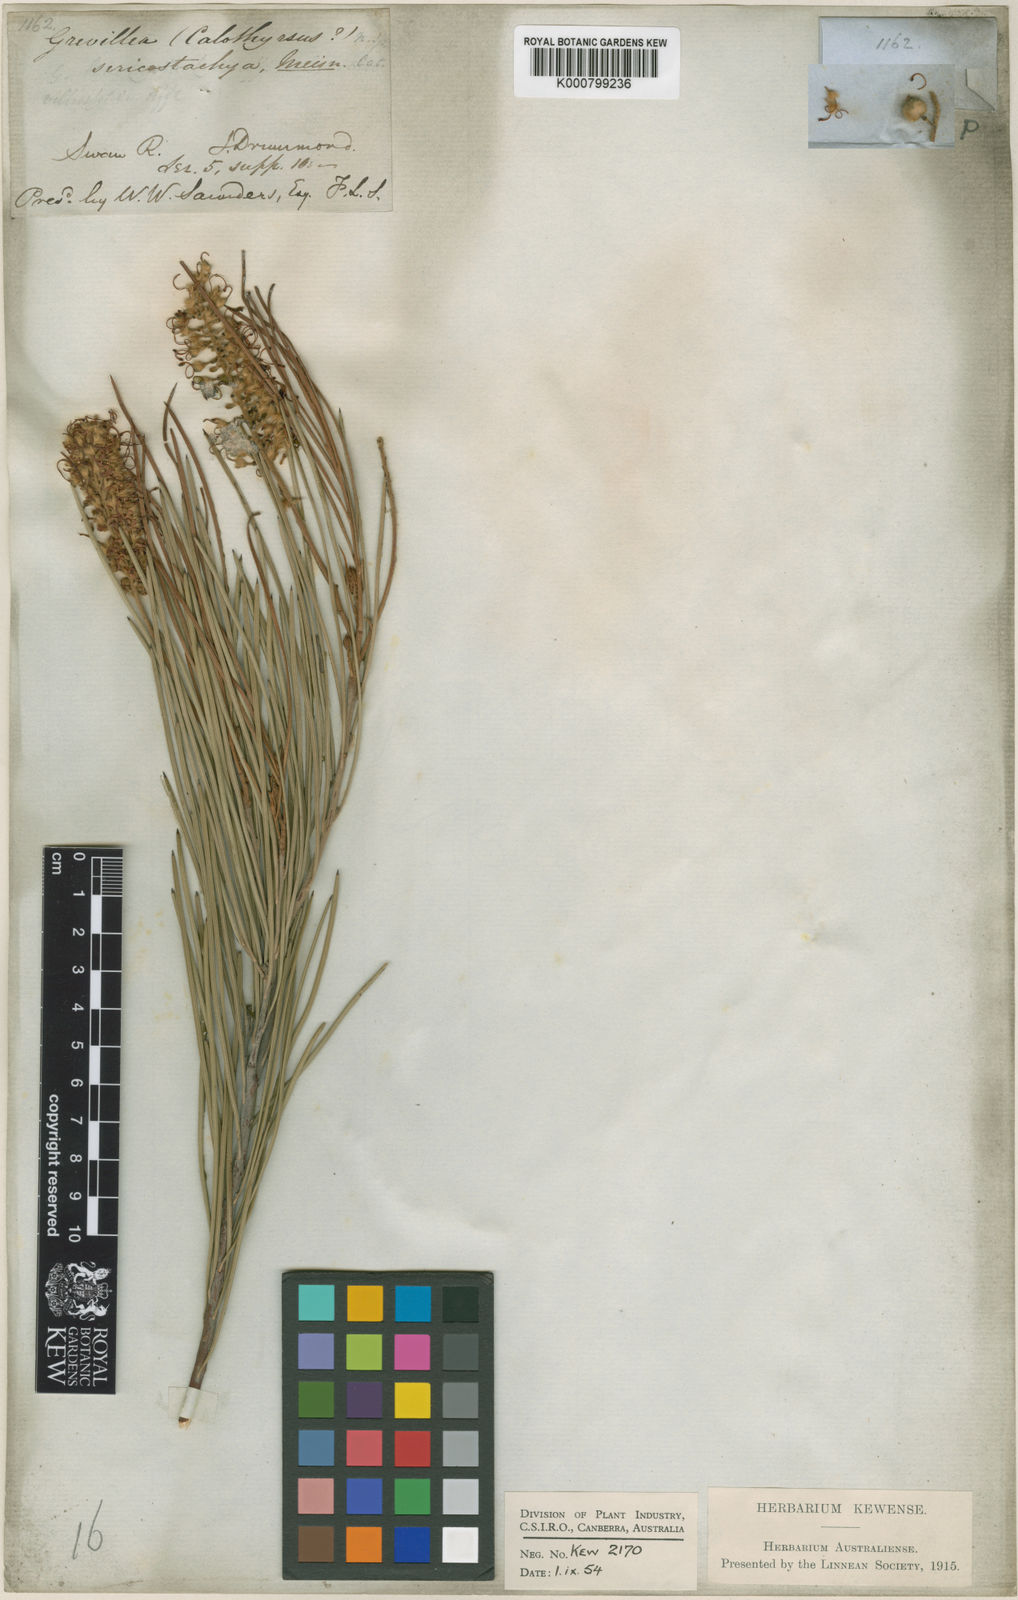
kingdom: Plantae
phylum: Tracheophyta
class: Magnoliopsida
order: Proteales
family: Proteaceae
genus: Grevillea
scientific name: Grevillea pterosperma
